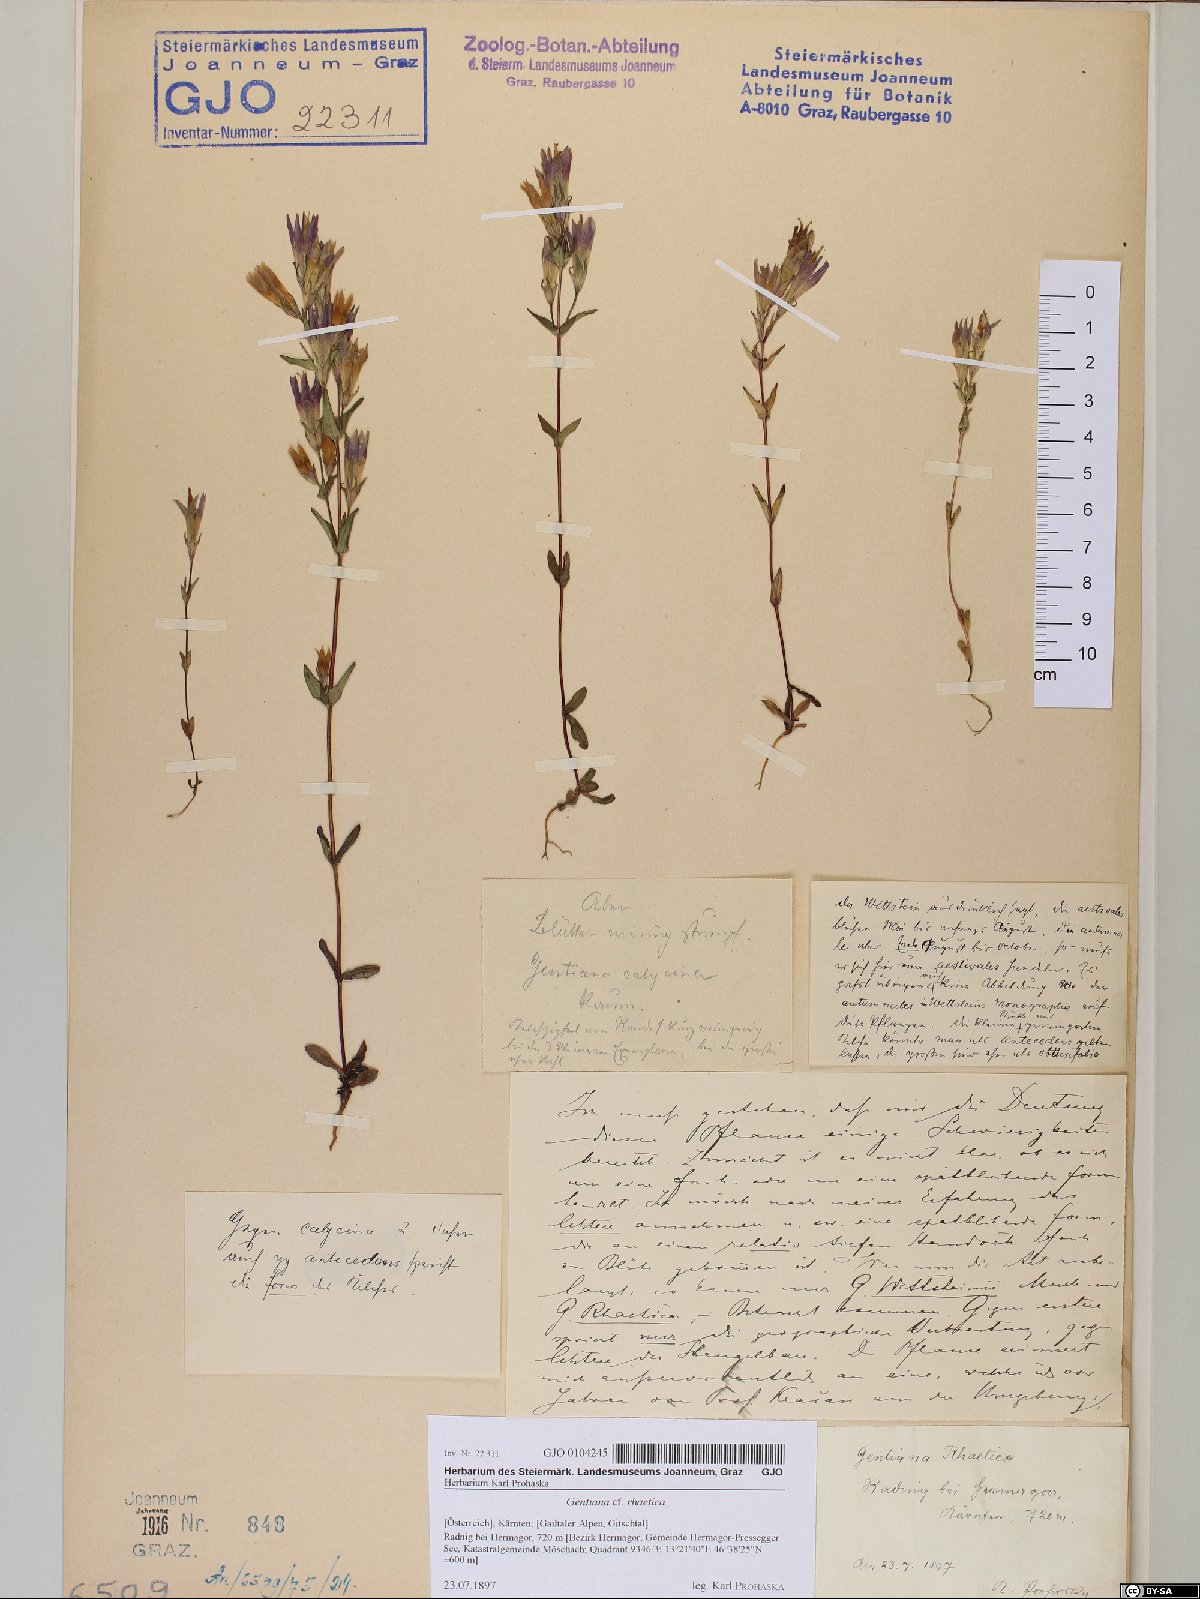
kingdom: Plantae
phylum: Tracheophyta
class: Magnoliopsida
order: Gentianales
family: Gentianaceae
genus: Gentianella
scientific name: Gentianella rhaetica
